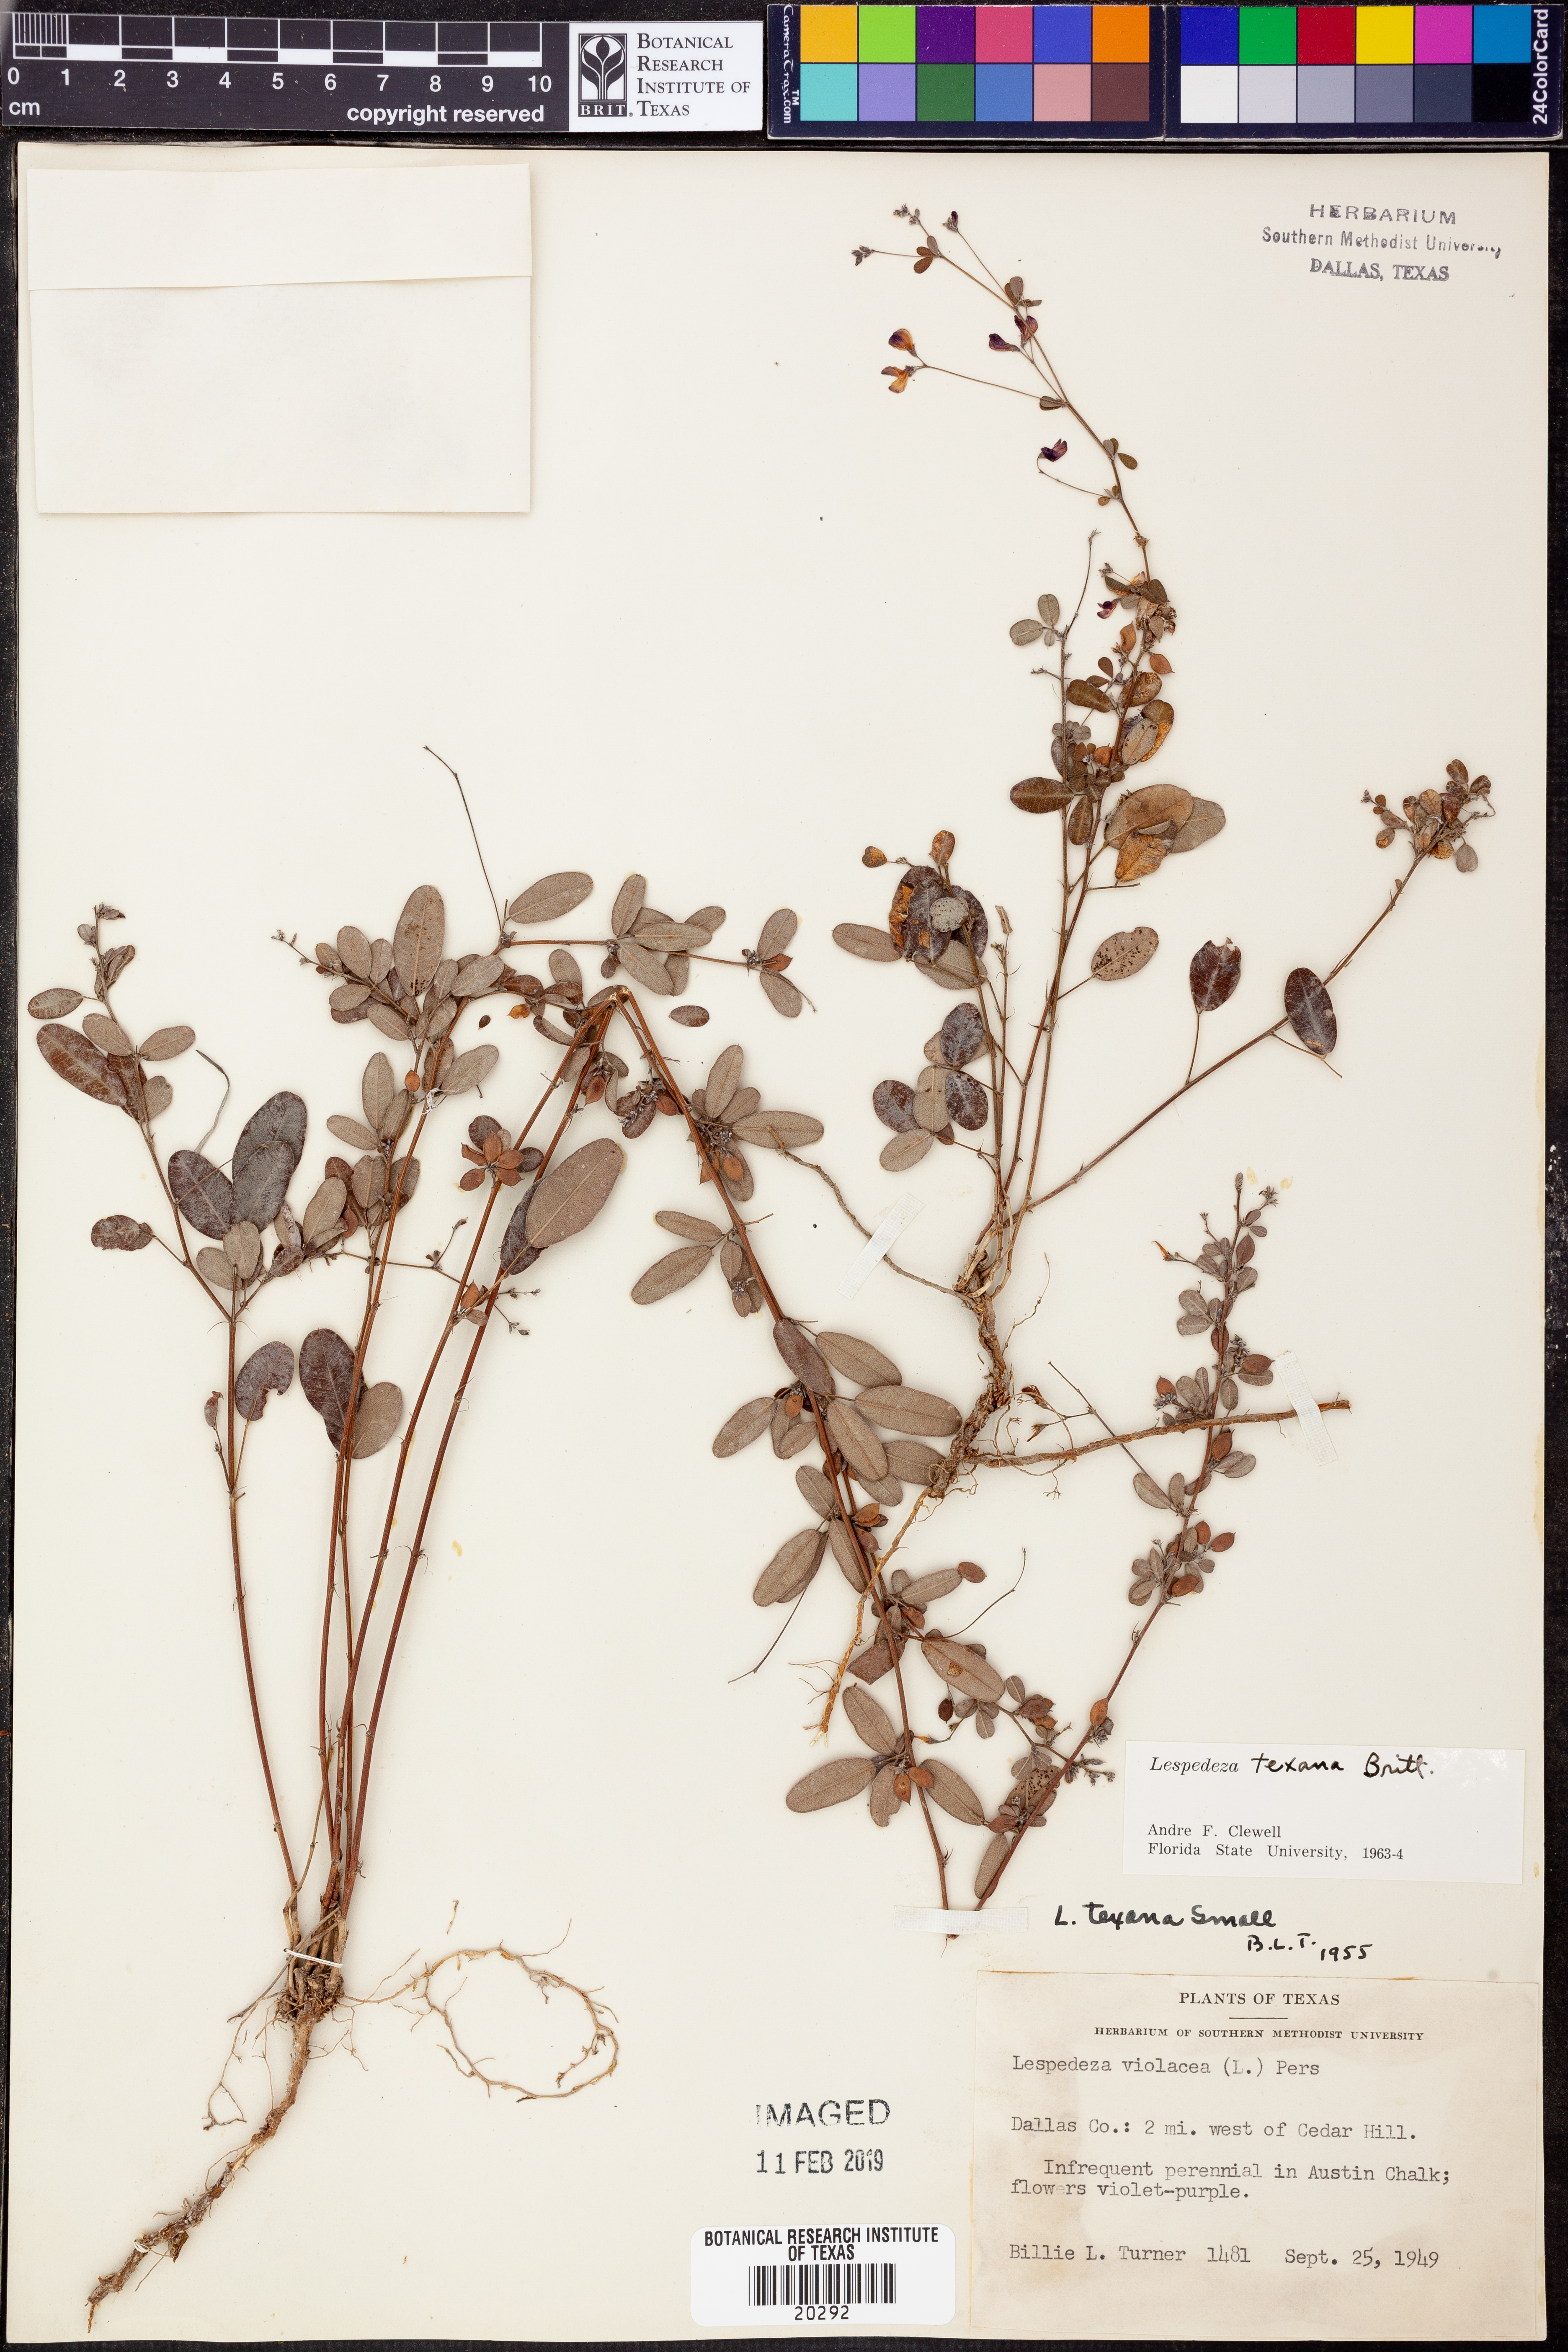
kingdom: Plantae
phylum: Tracheophyta
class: Magnoliopsida
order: Fabales
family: Fabaceae
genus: Lespedeza
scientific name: Lespedeza texana
